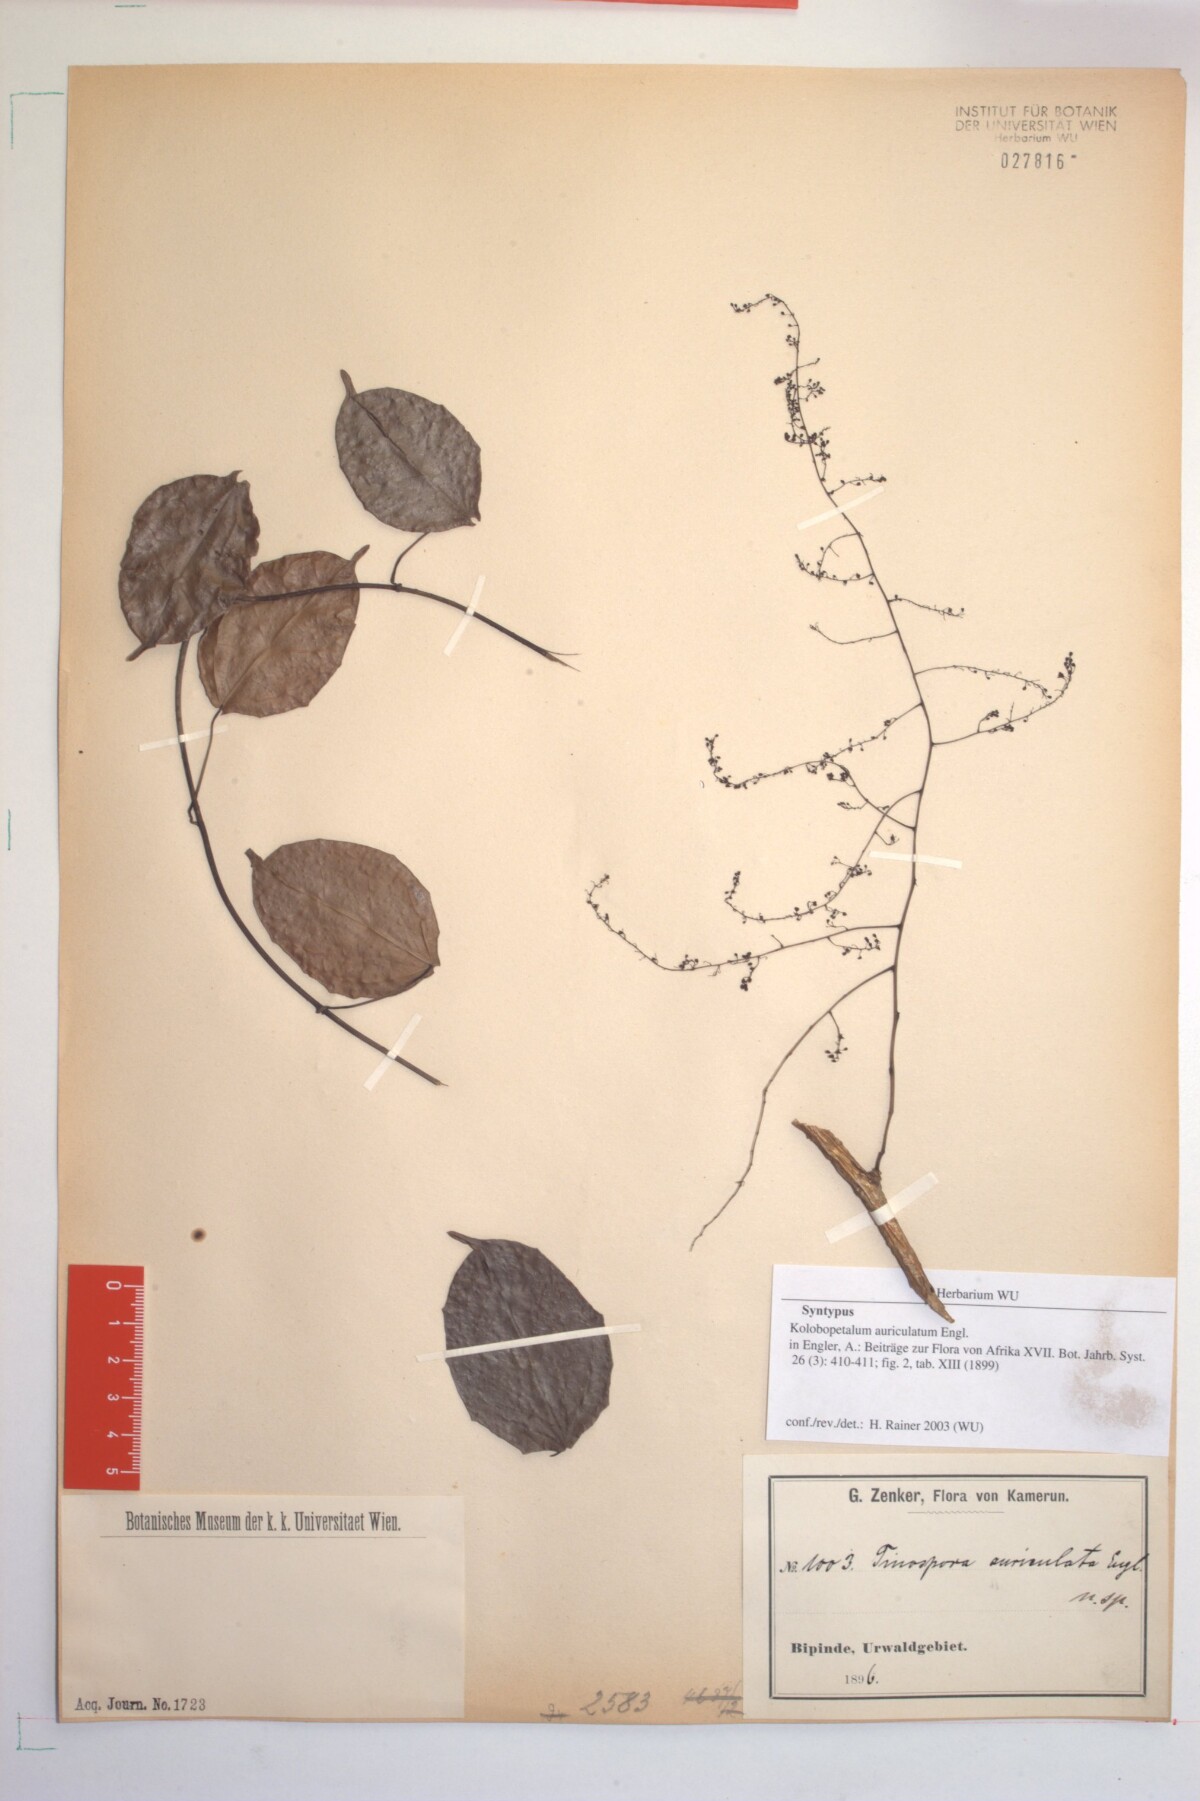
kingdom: Plantae
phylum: Tracheophyta
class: Magnoliopsida
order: Ranunculales
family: Menispermaceae
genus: Kolobopetalum
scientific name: Kolobopetalum auriculatum
